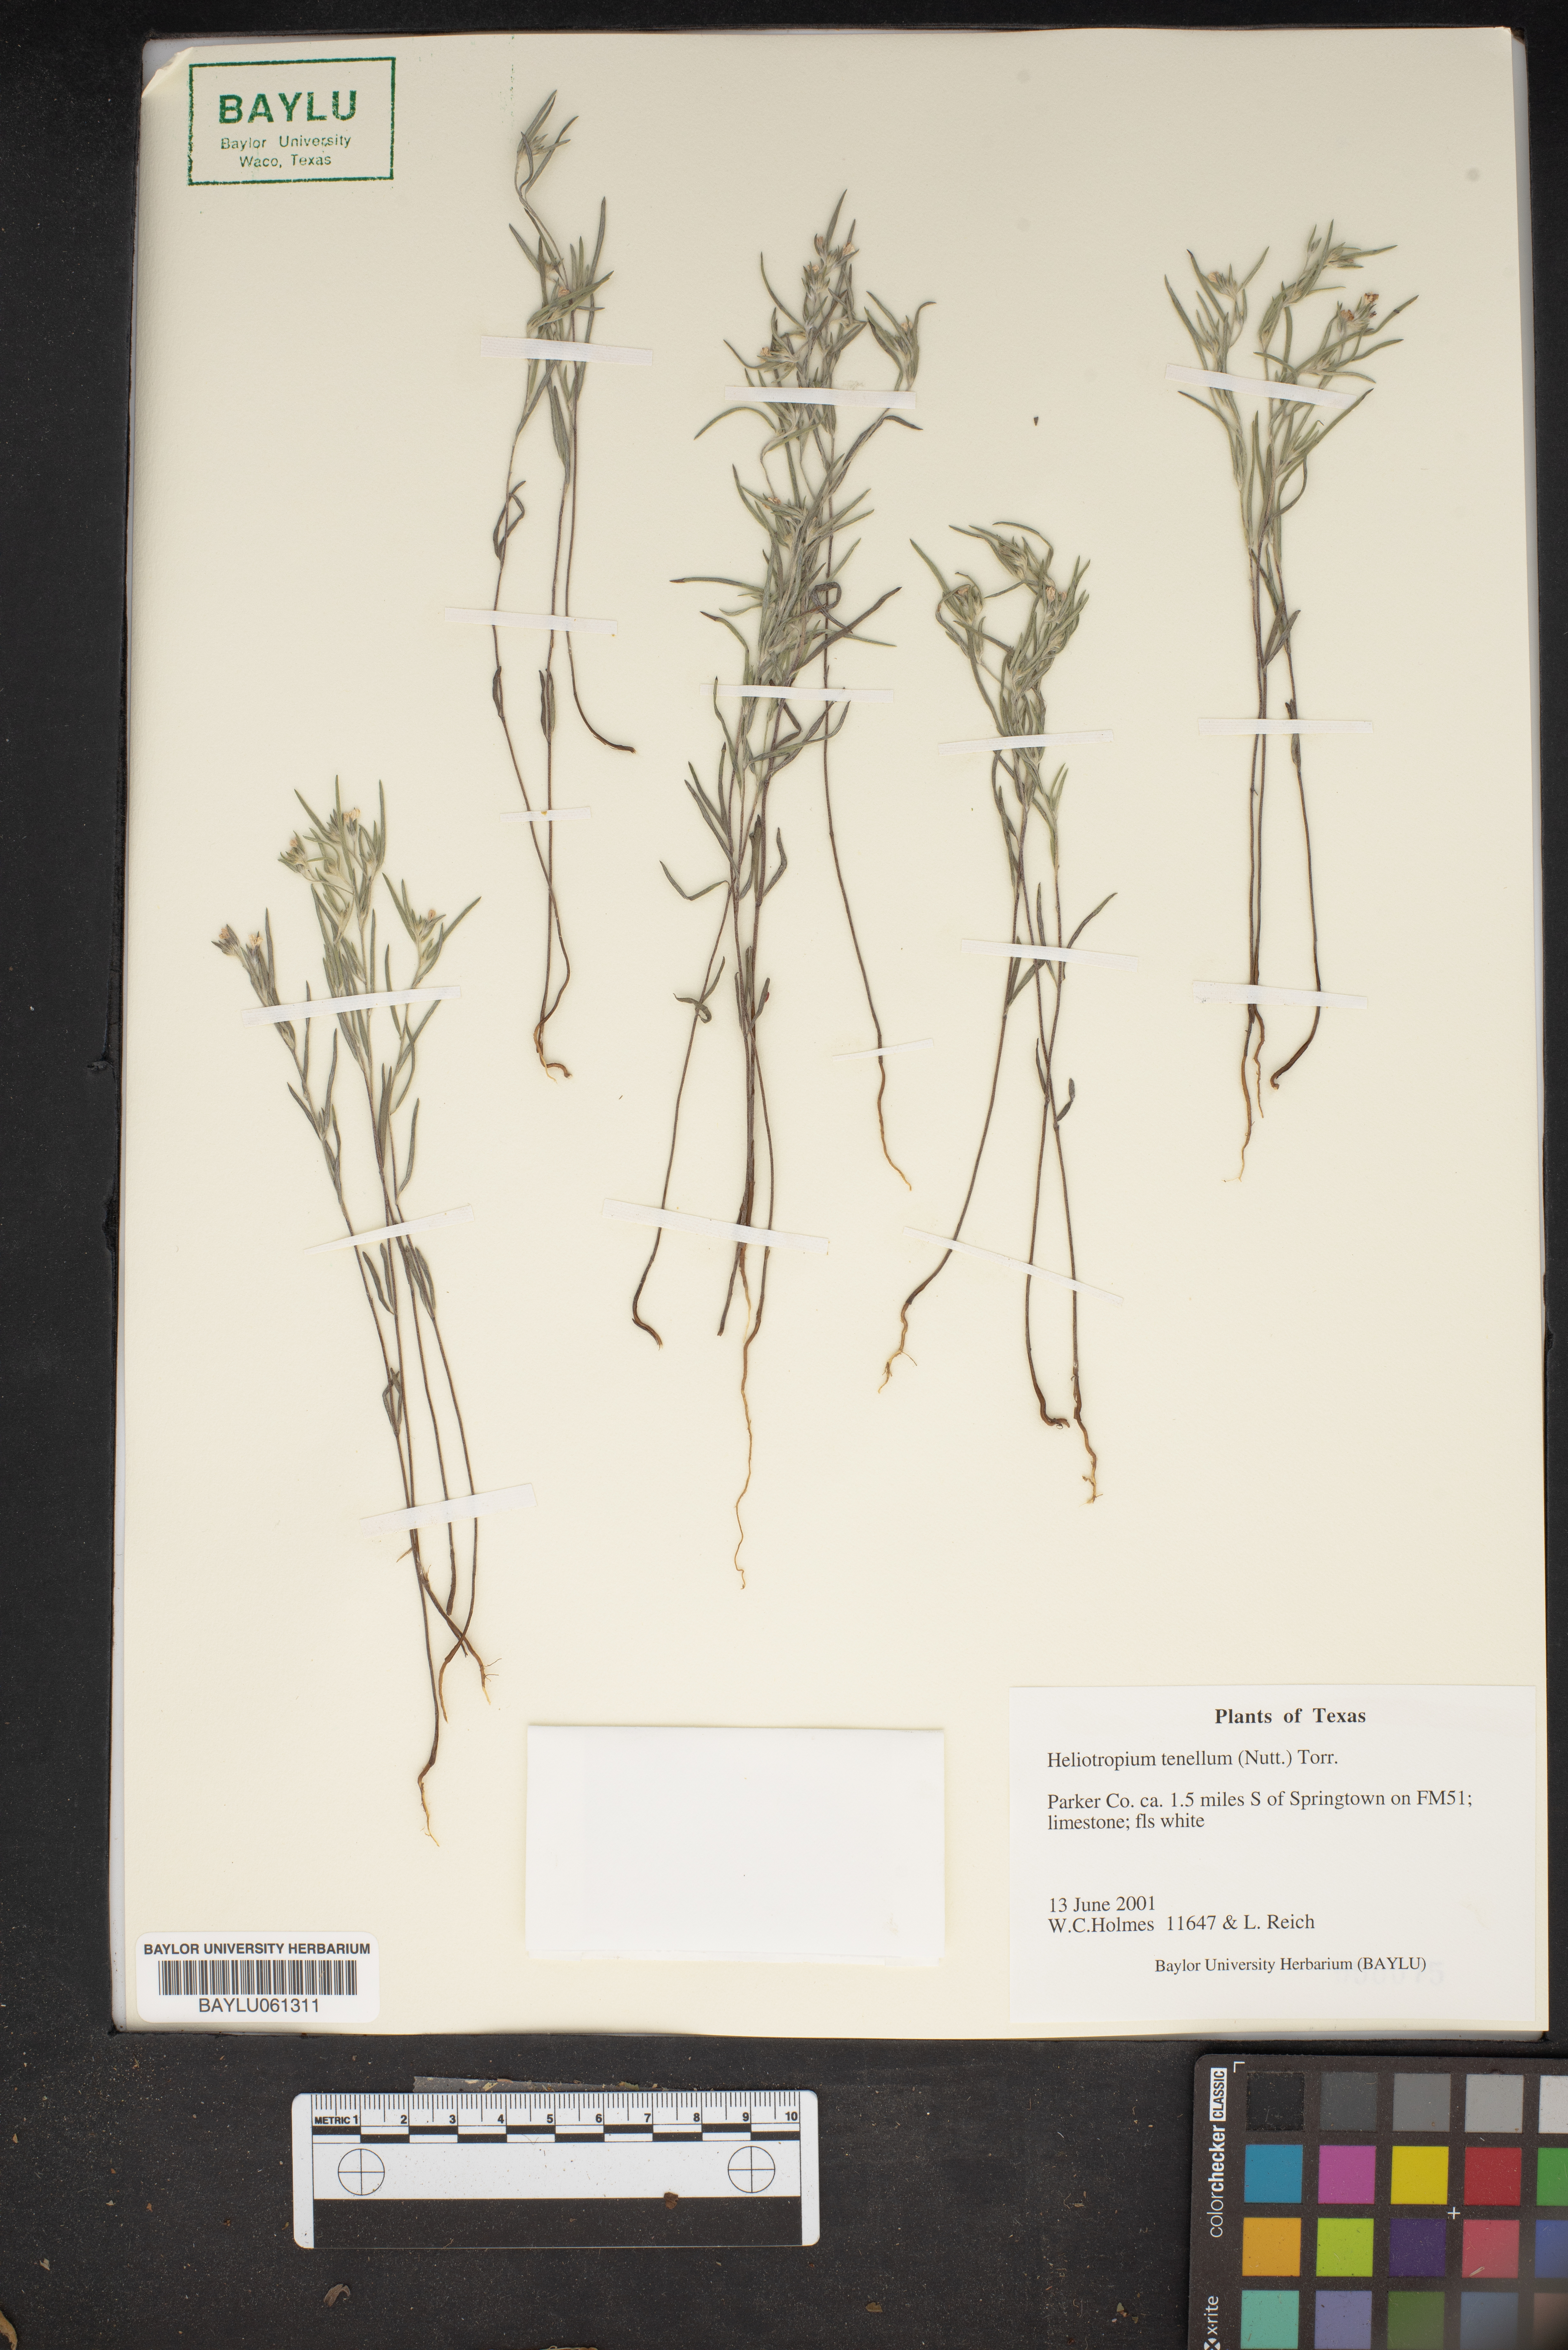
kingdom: Plantae
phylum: Tracheophyta
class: Magnoliopsida
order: Boraginales
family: Heliotropiaceae
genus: Euploca
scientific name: Euploca tenella
